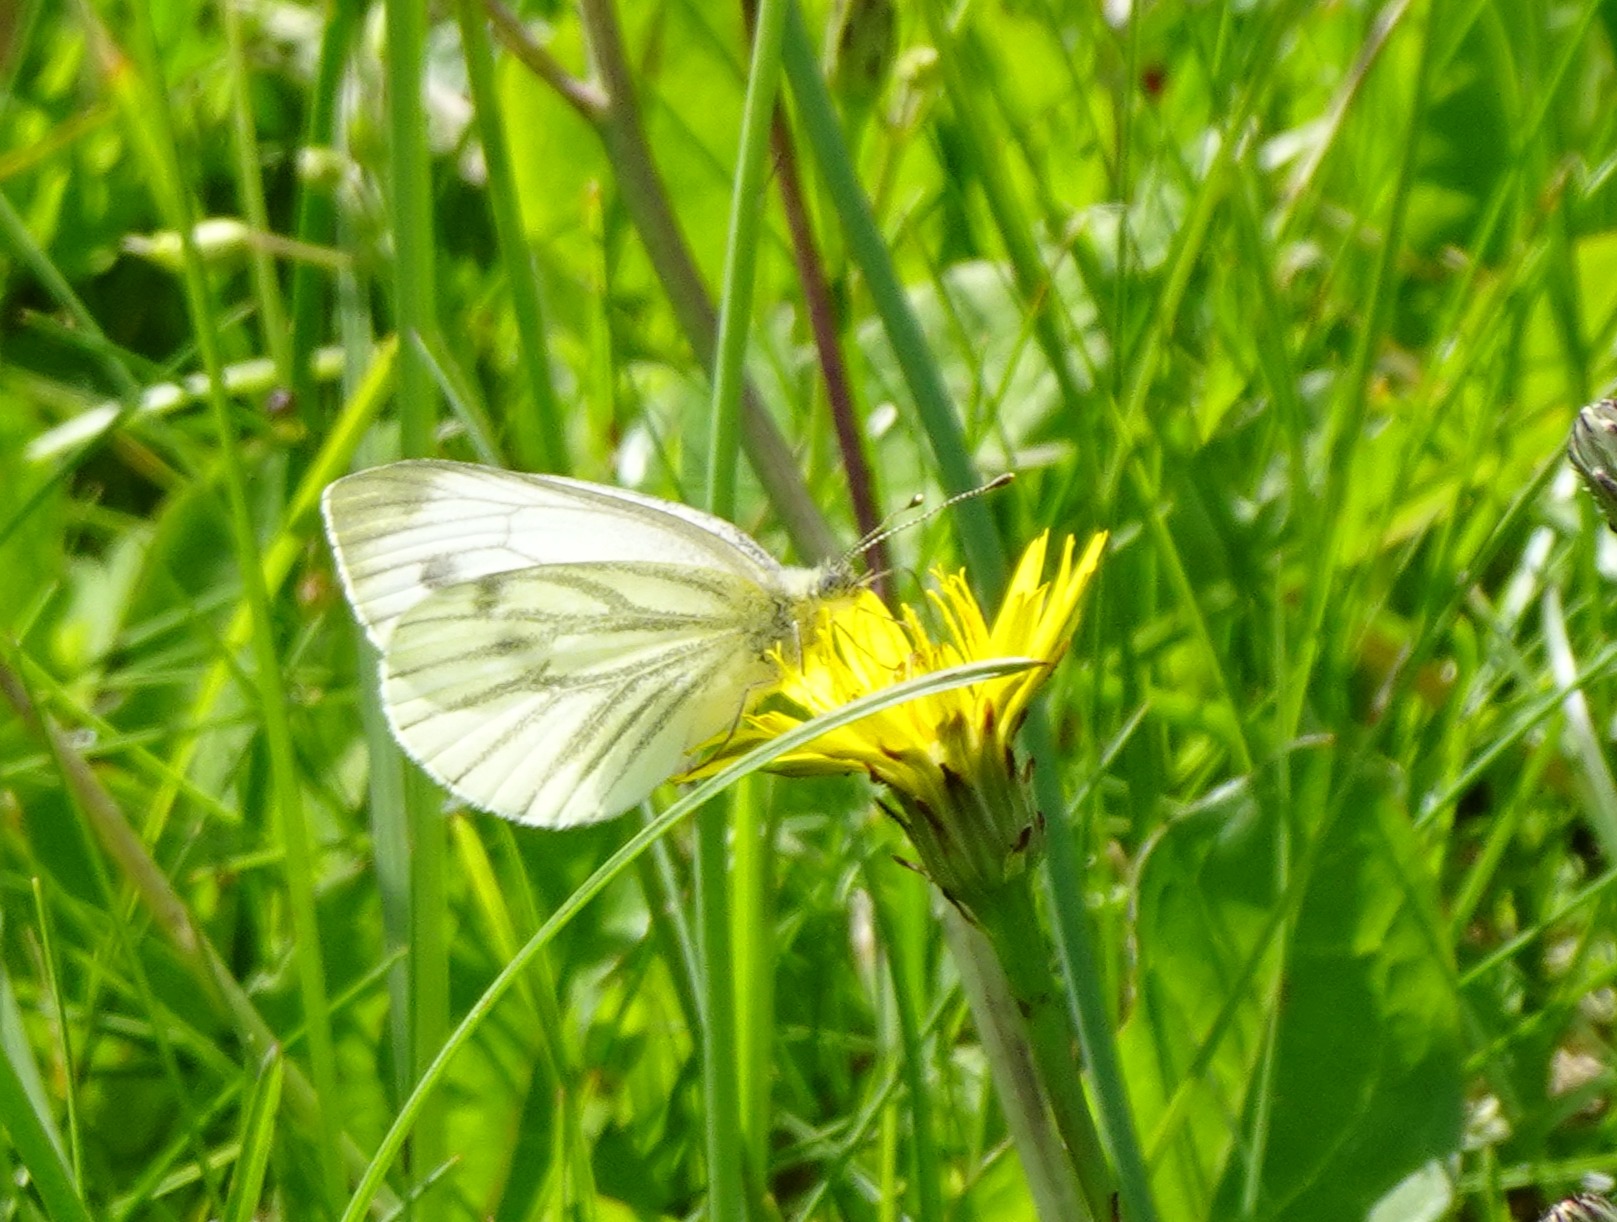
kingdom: Animalia
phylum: Arthropoda
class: Insecta
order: Lepidoptera
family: Pieridae
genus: Pieris
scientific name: Pieris napi
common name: Grønåret kålsommerfugl
